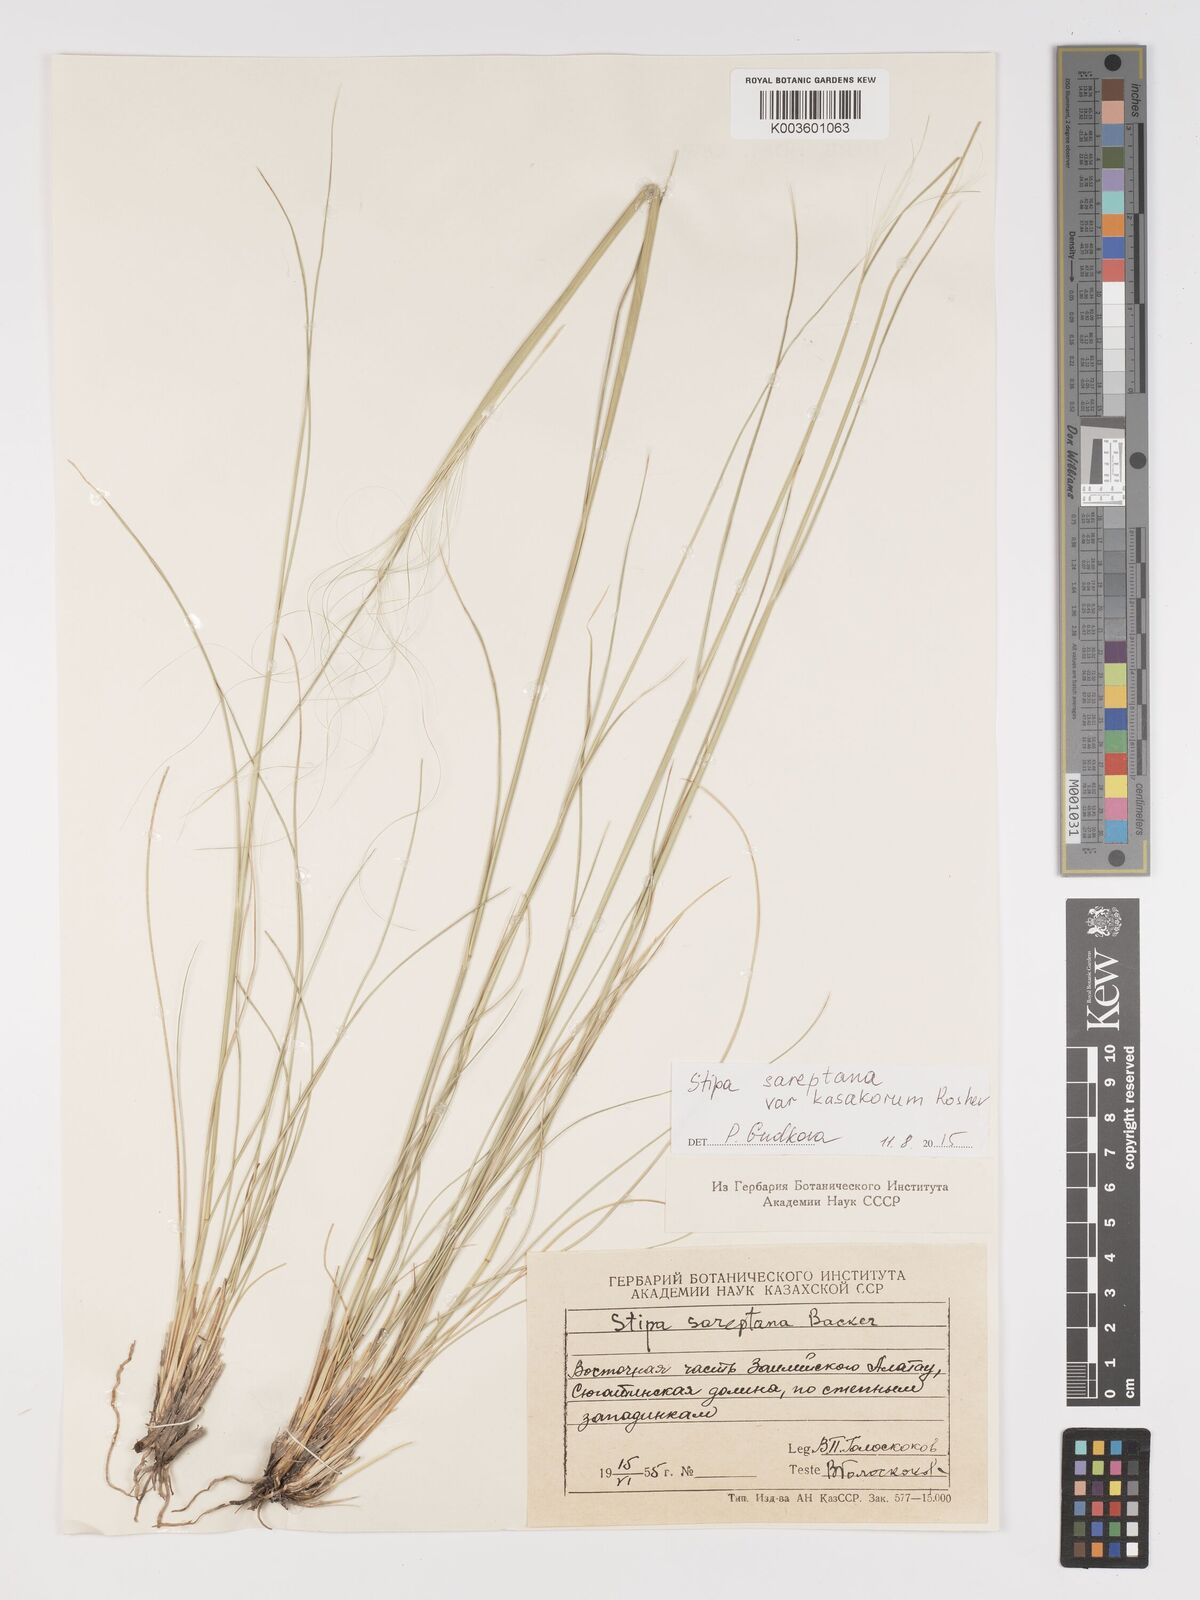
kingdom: Plantae
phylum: Tracheophyta
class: Liliopsida
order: Poales
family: Poaceae
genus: Stipa
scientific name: Stipa sareptana
